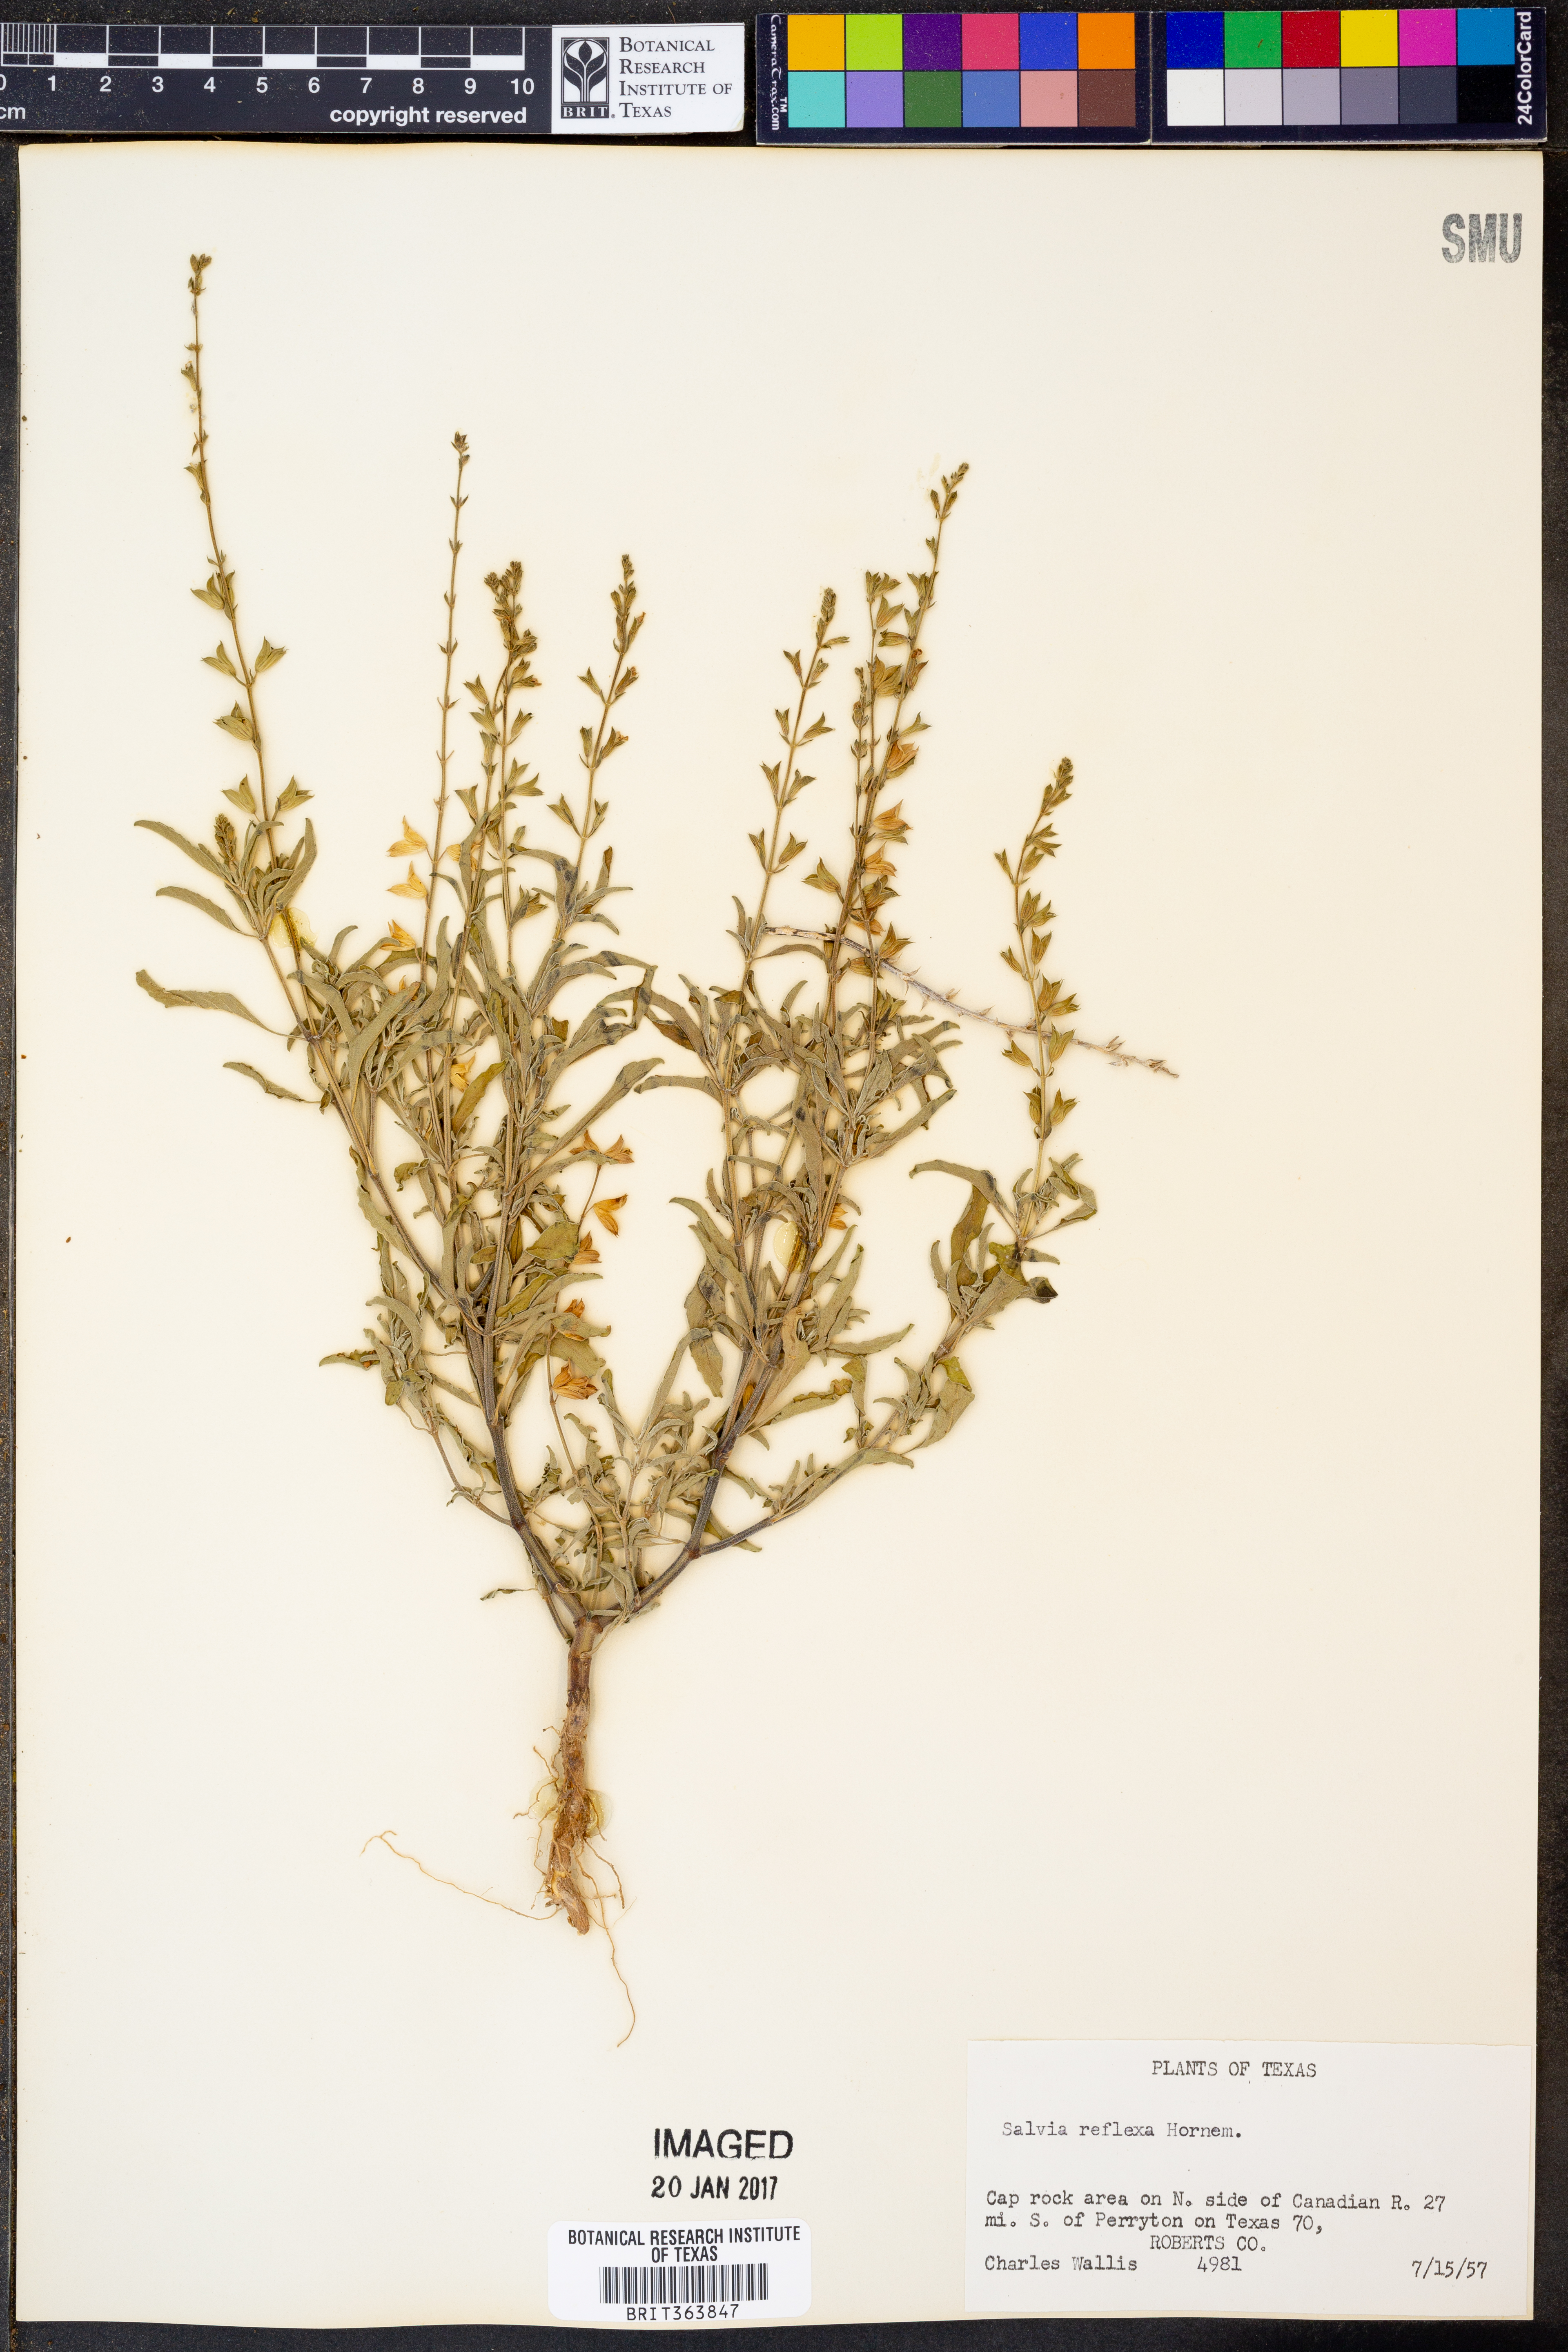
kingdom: Plantae
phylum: Tracheophyta
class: Magnoliopsida
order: Lamiales
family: Lamiaceae
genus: Salvia
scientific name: Salvia reflexa
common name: Mintweed
